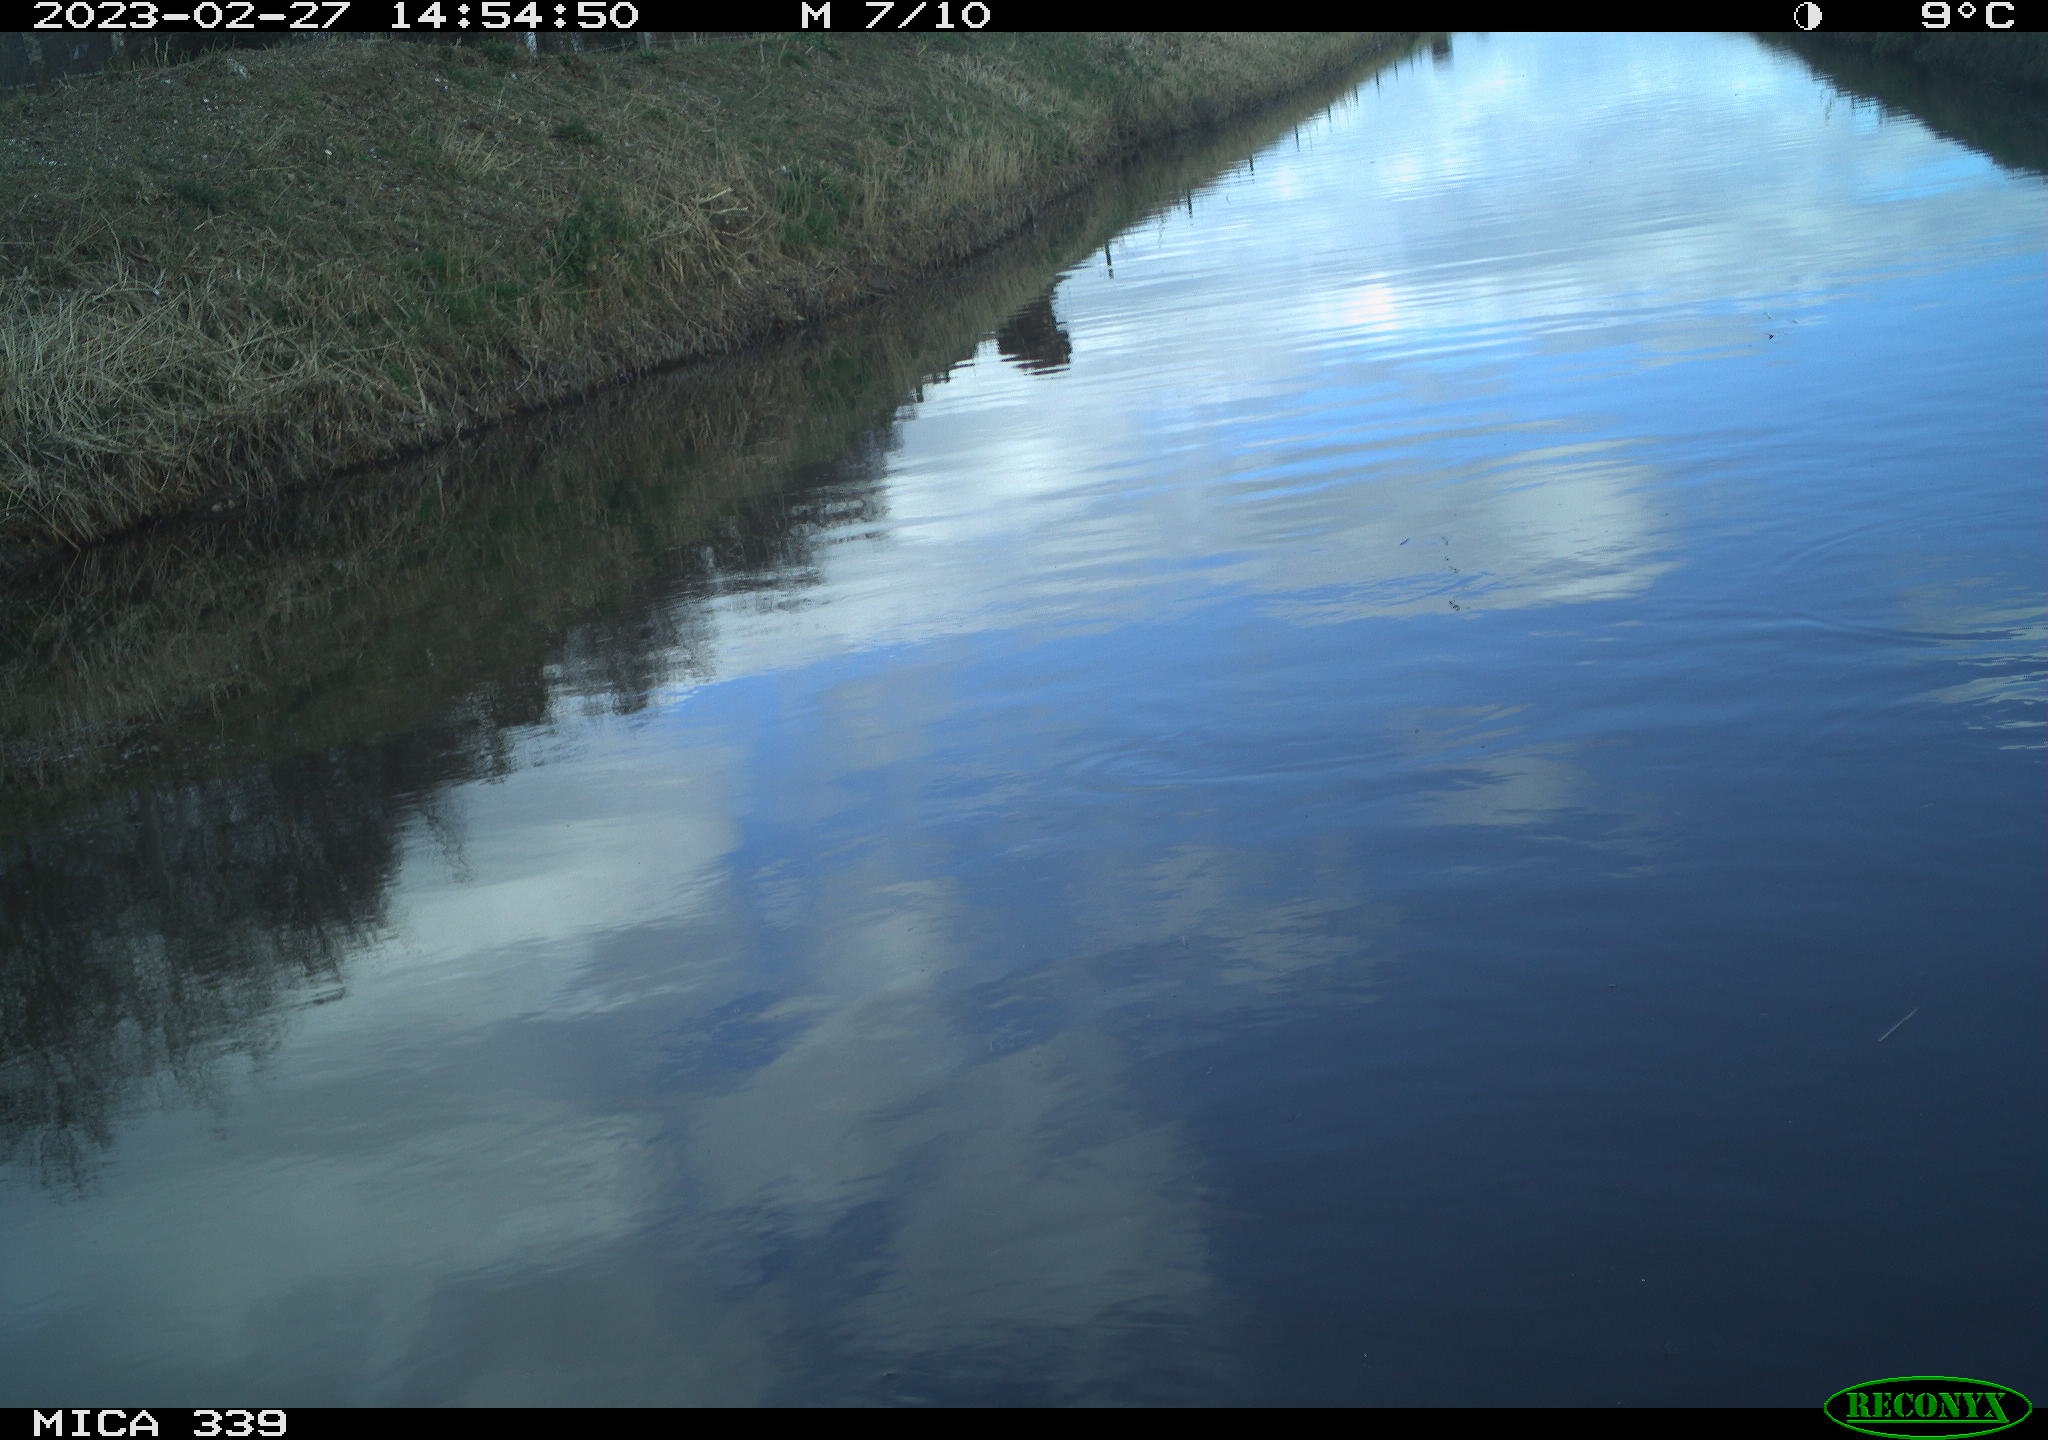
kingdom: Animalia
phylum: Chordata
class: Aves
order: Pelecaniformes
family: Ardeidae
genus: Ardea
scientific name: Ardea cinerea
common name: Grey heron
